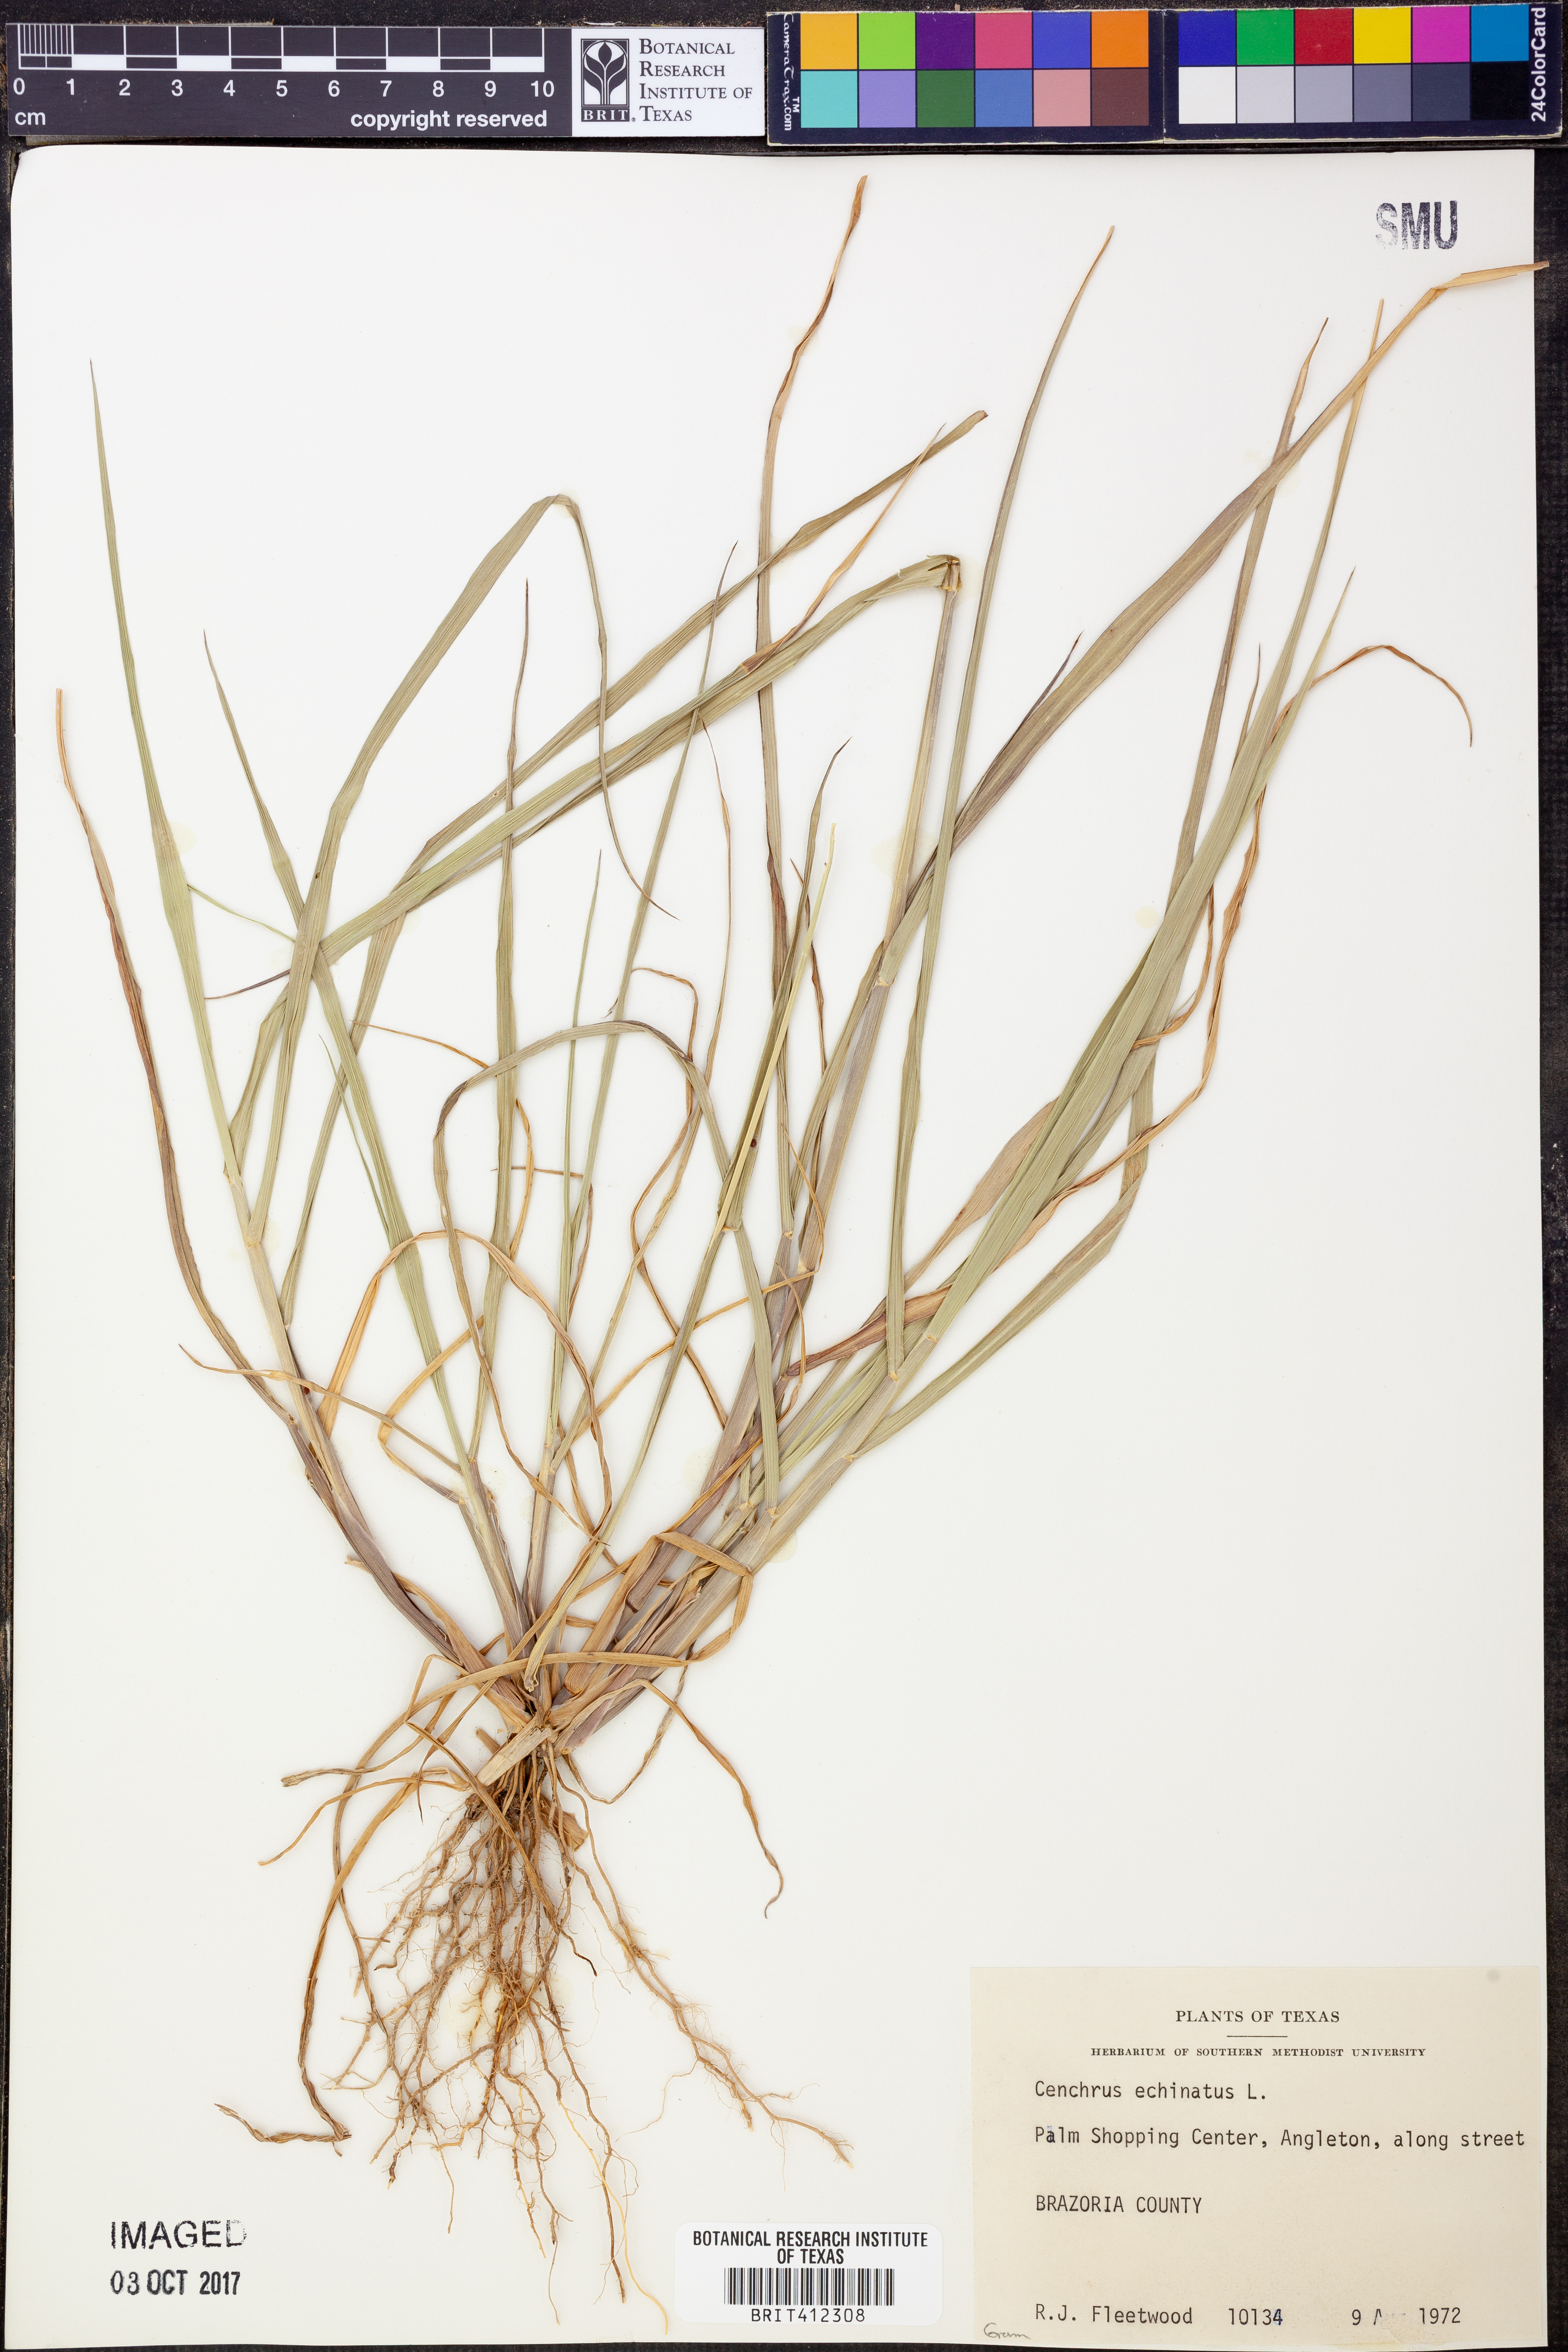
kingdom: Plantae
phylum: Tracheophyta
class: Liliopsida
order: Poales
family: Poaceae
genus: Cenchrus
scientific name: Cenchrus echinatus
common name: Southern sandbur
